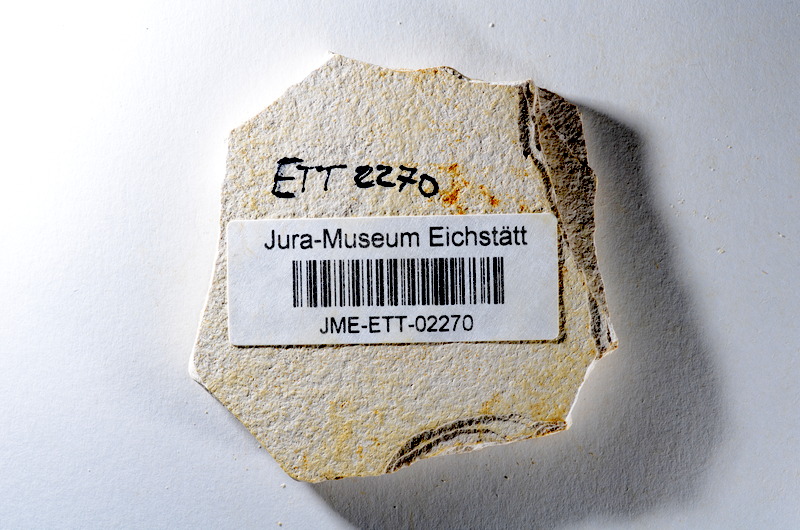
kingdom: Animalia
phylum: Chordata
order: Salmoniformes
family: Orthogonikleithridae
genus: Orthogonikleithrus
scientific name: Orthogonikleithrus hoelli
